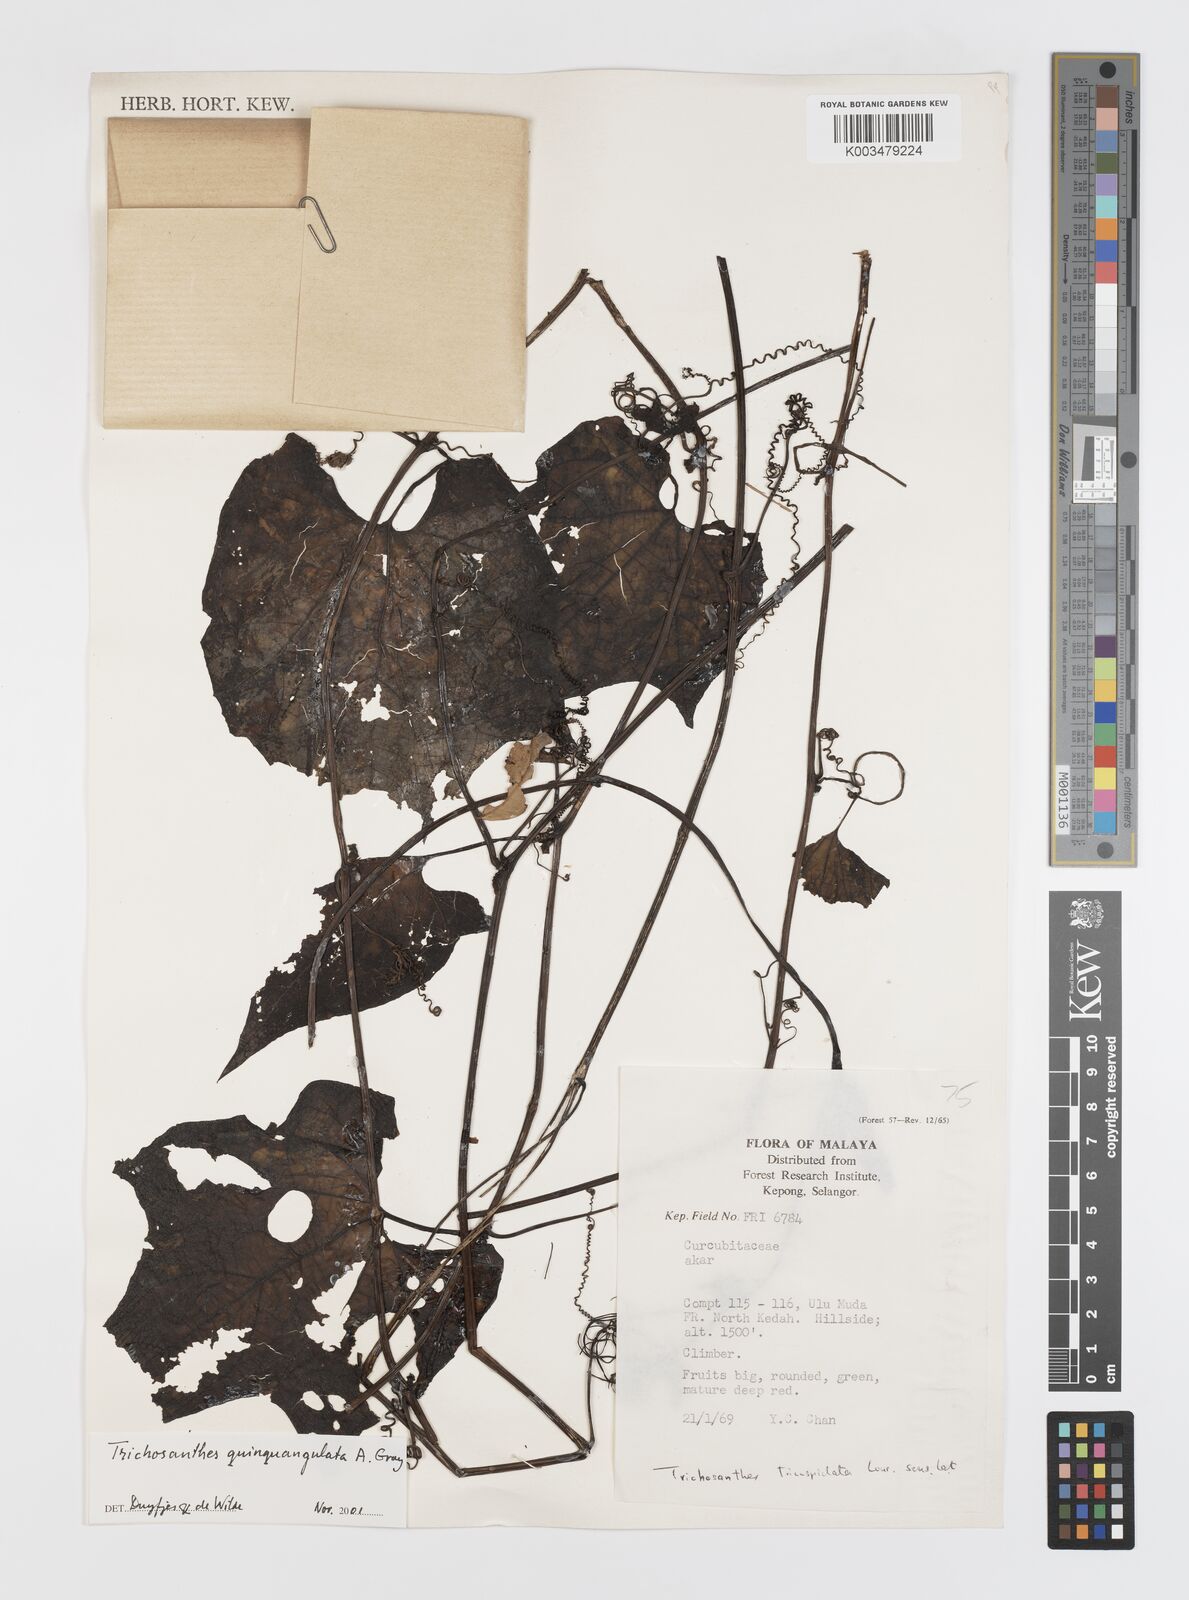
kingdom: Plantae
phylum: Tracheophyta
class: Magnoliopsida
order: Cucurbitales
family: Cucurbitaceae
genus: Trichosanthes
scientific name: Trichosanthes quinquangulata
